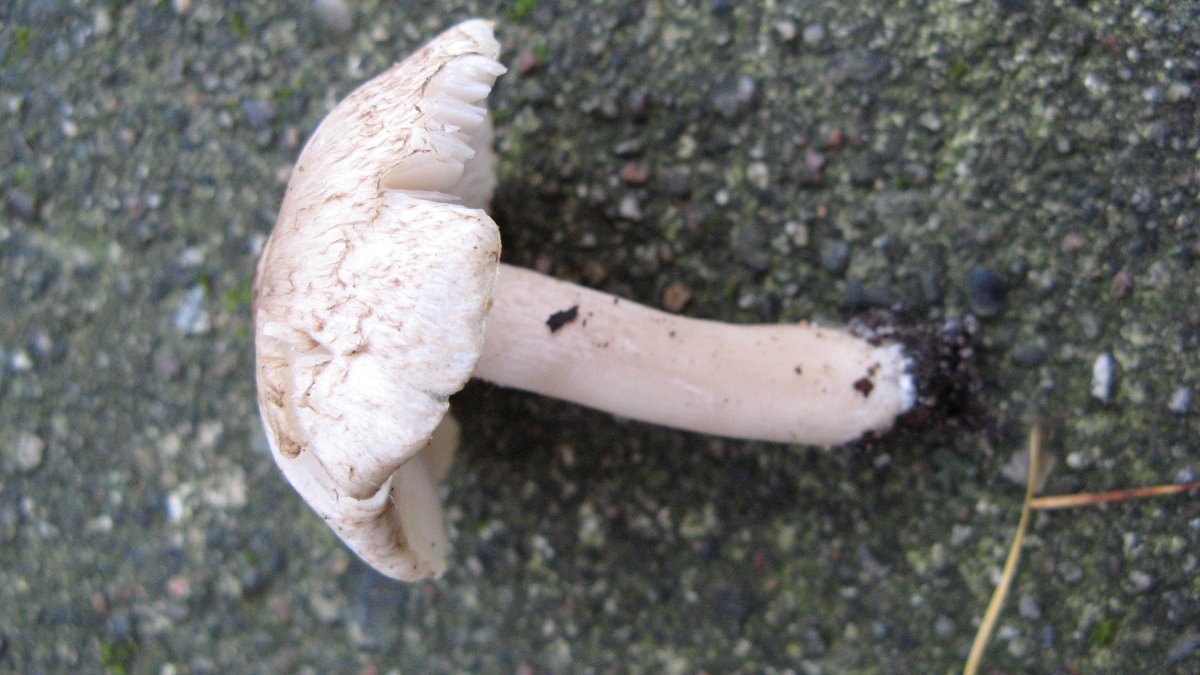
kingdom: Fungi
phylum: Basidiomycota
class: Agaricomycetes
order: Agaricales
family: Tricholomataceae
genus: Tricholoma
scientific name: Tricholoma scalpturatum
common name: gulplettet ridderhat
